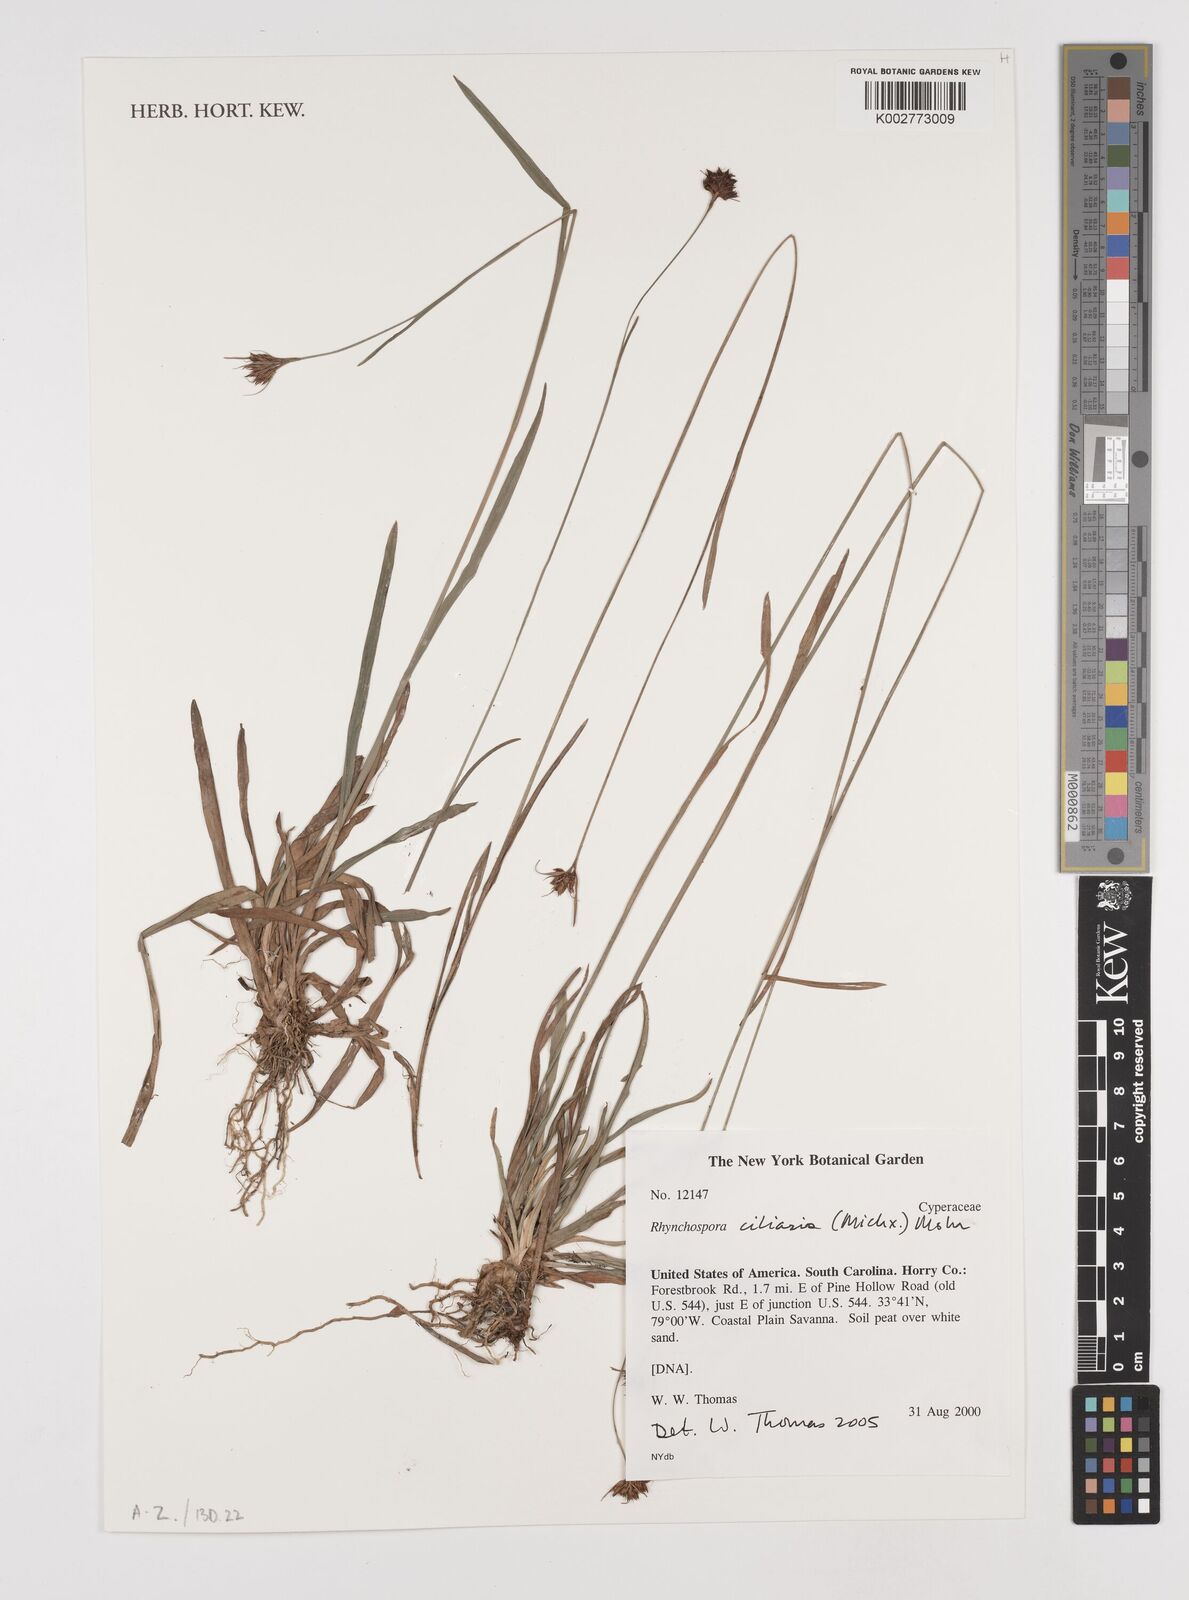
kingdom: Plantae
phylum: Tracheophyta
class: Liliopsida
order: Poales
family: Cyperaceae
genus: Rhynchospora
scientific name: Rhynchospora ciliaris
